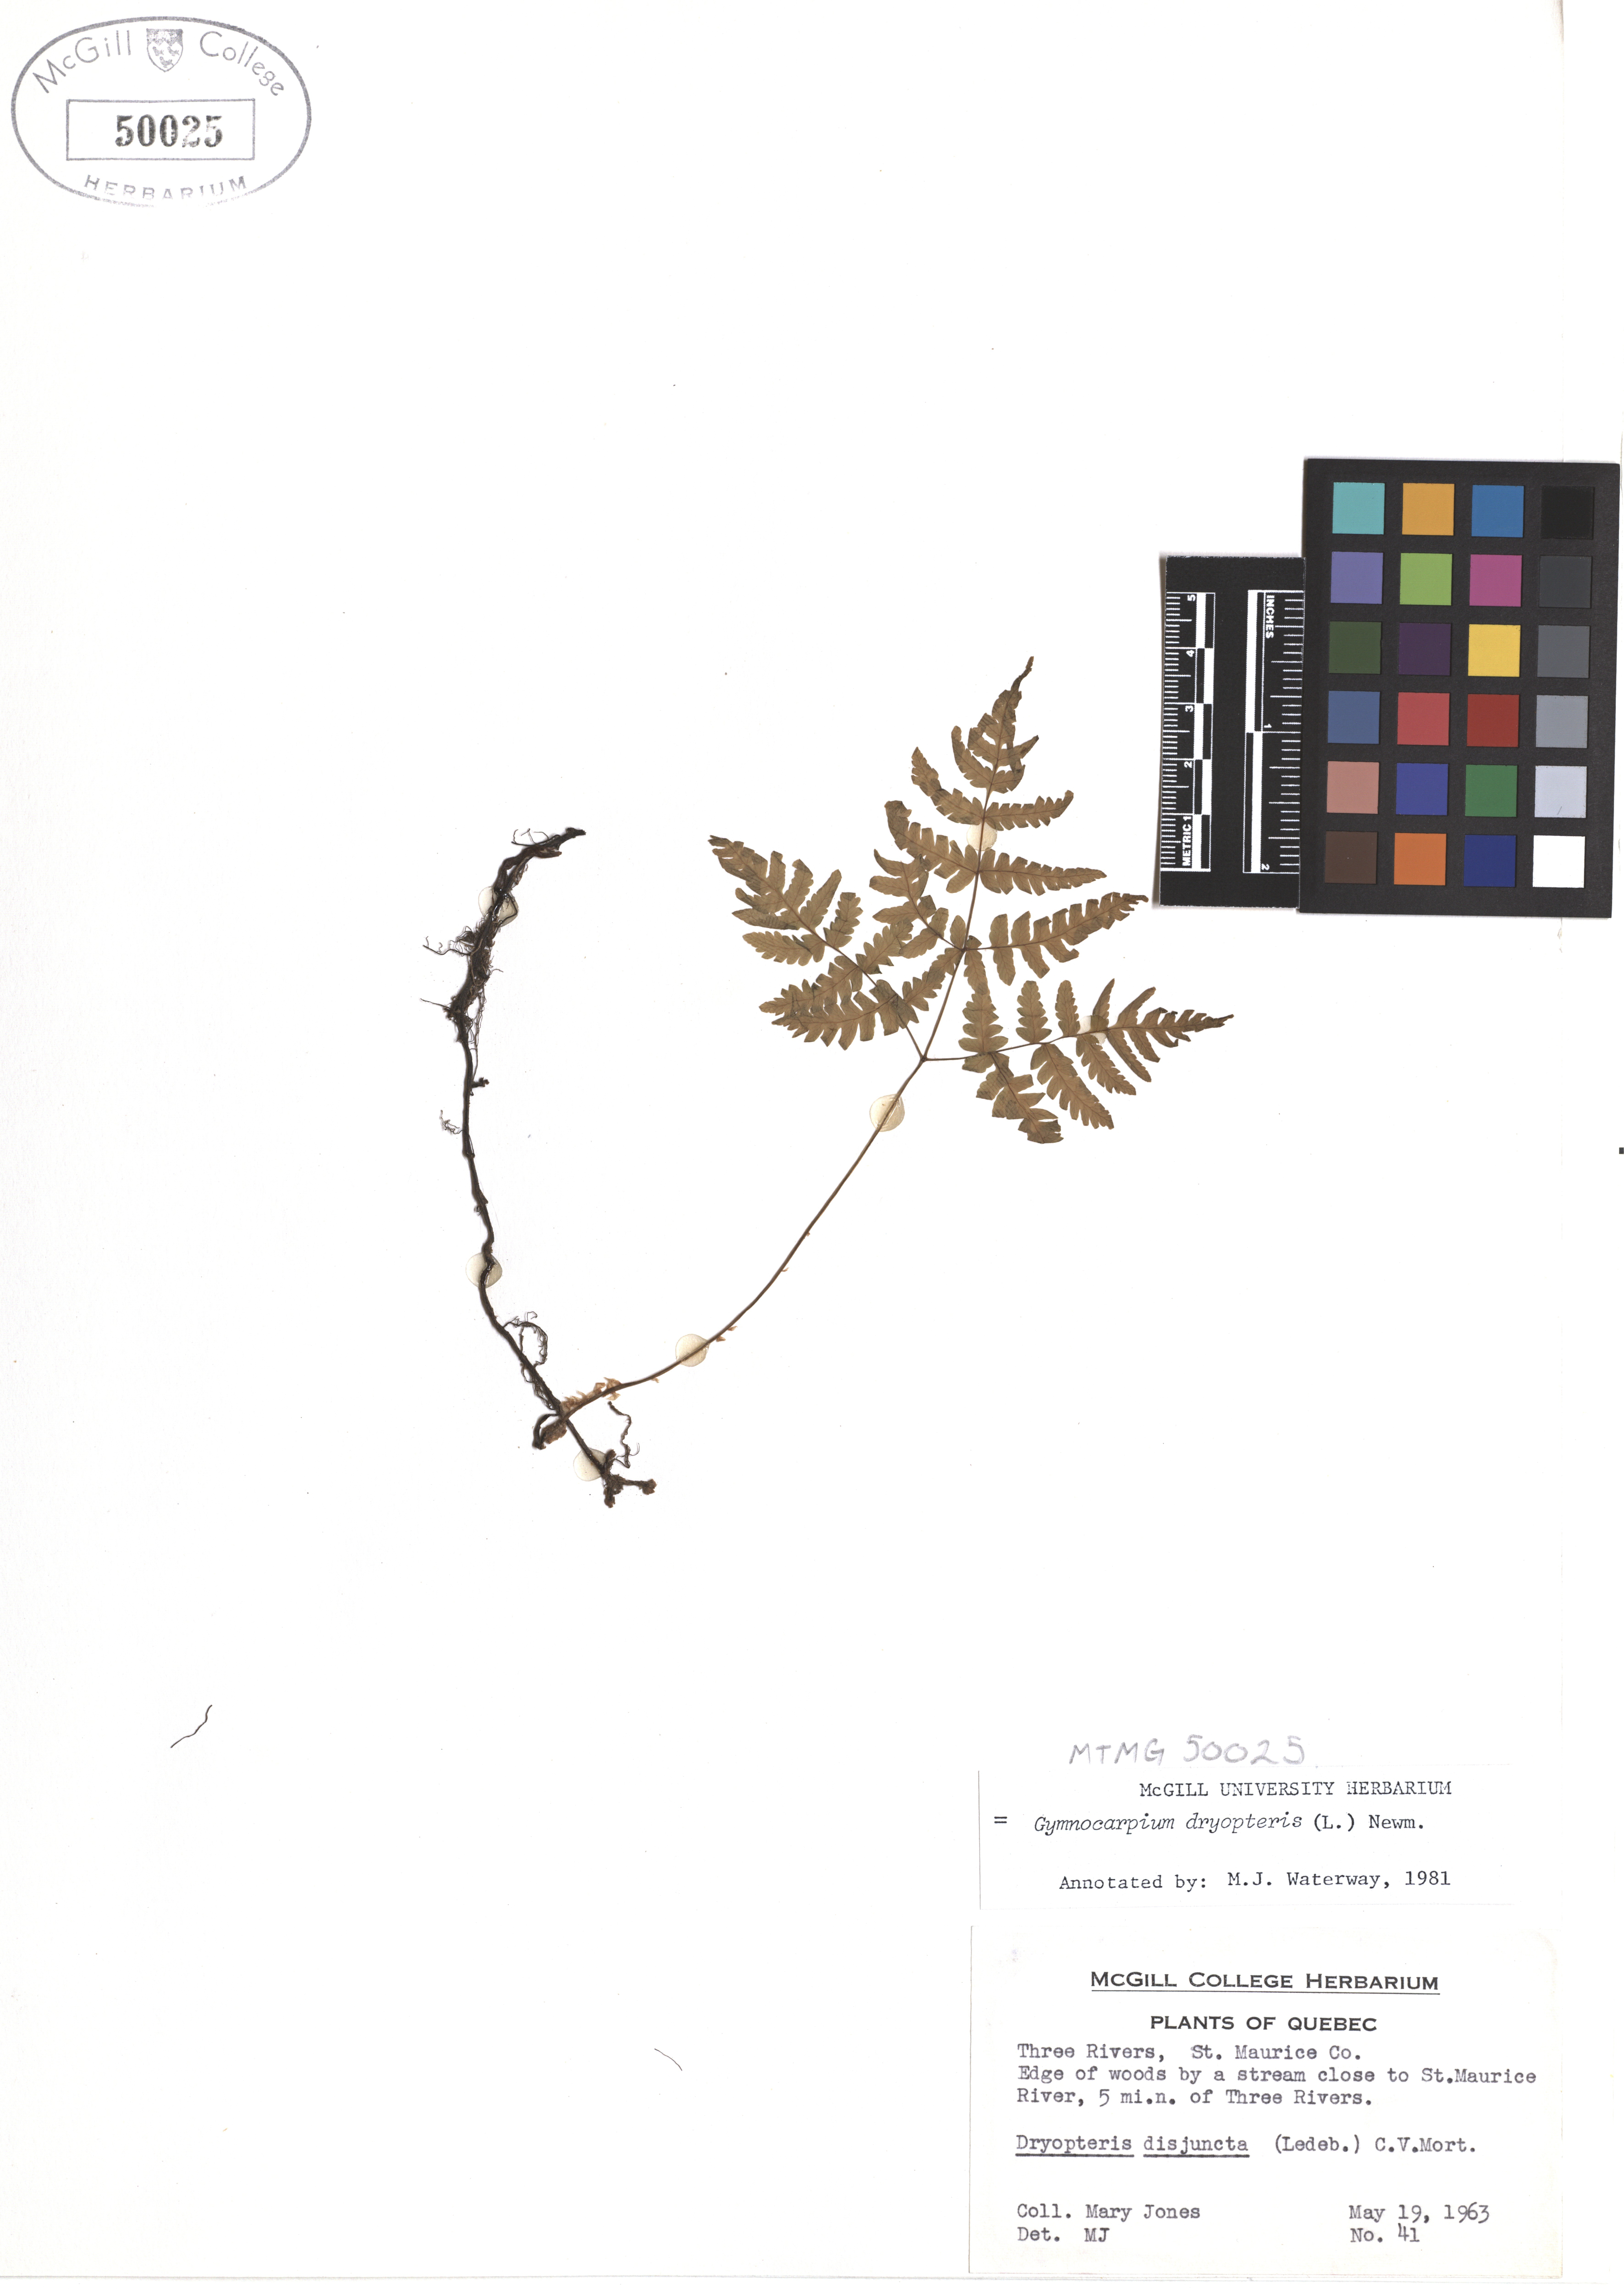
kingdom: Plantae
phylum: Tracheophyta
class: Polypodiopsida
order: Polypodiales
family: Cystopteridaceae
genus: Gymnocarpium
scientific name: Gymnocarpium dryopteris
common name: Oak fern
